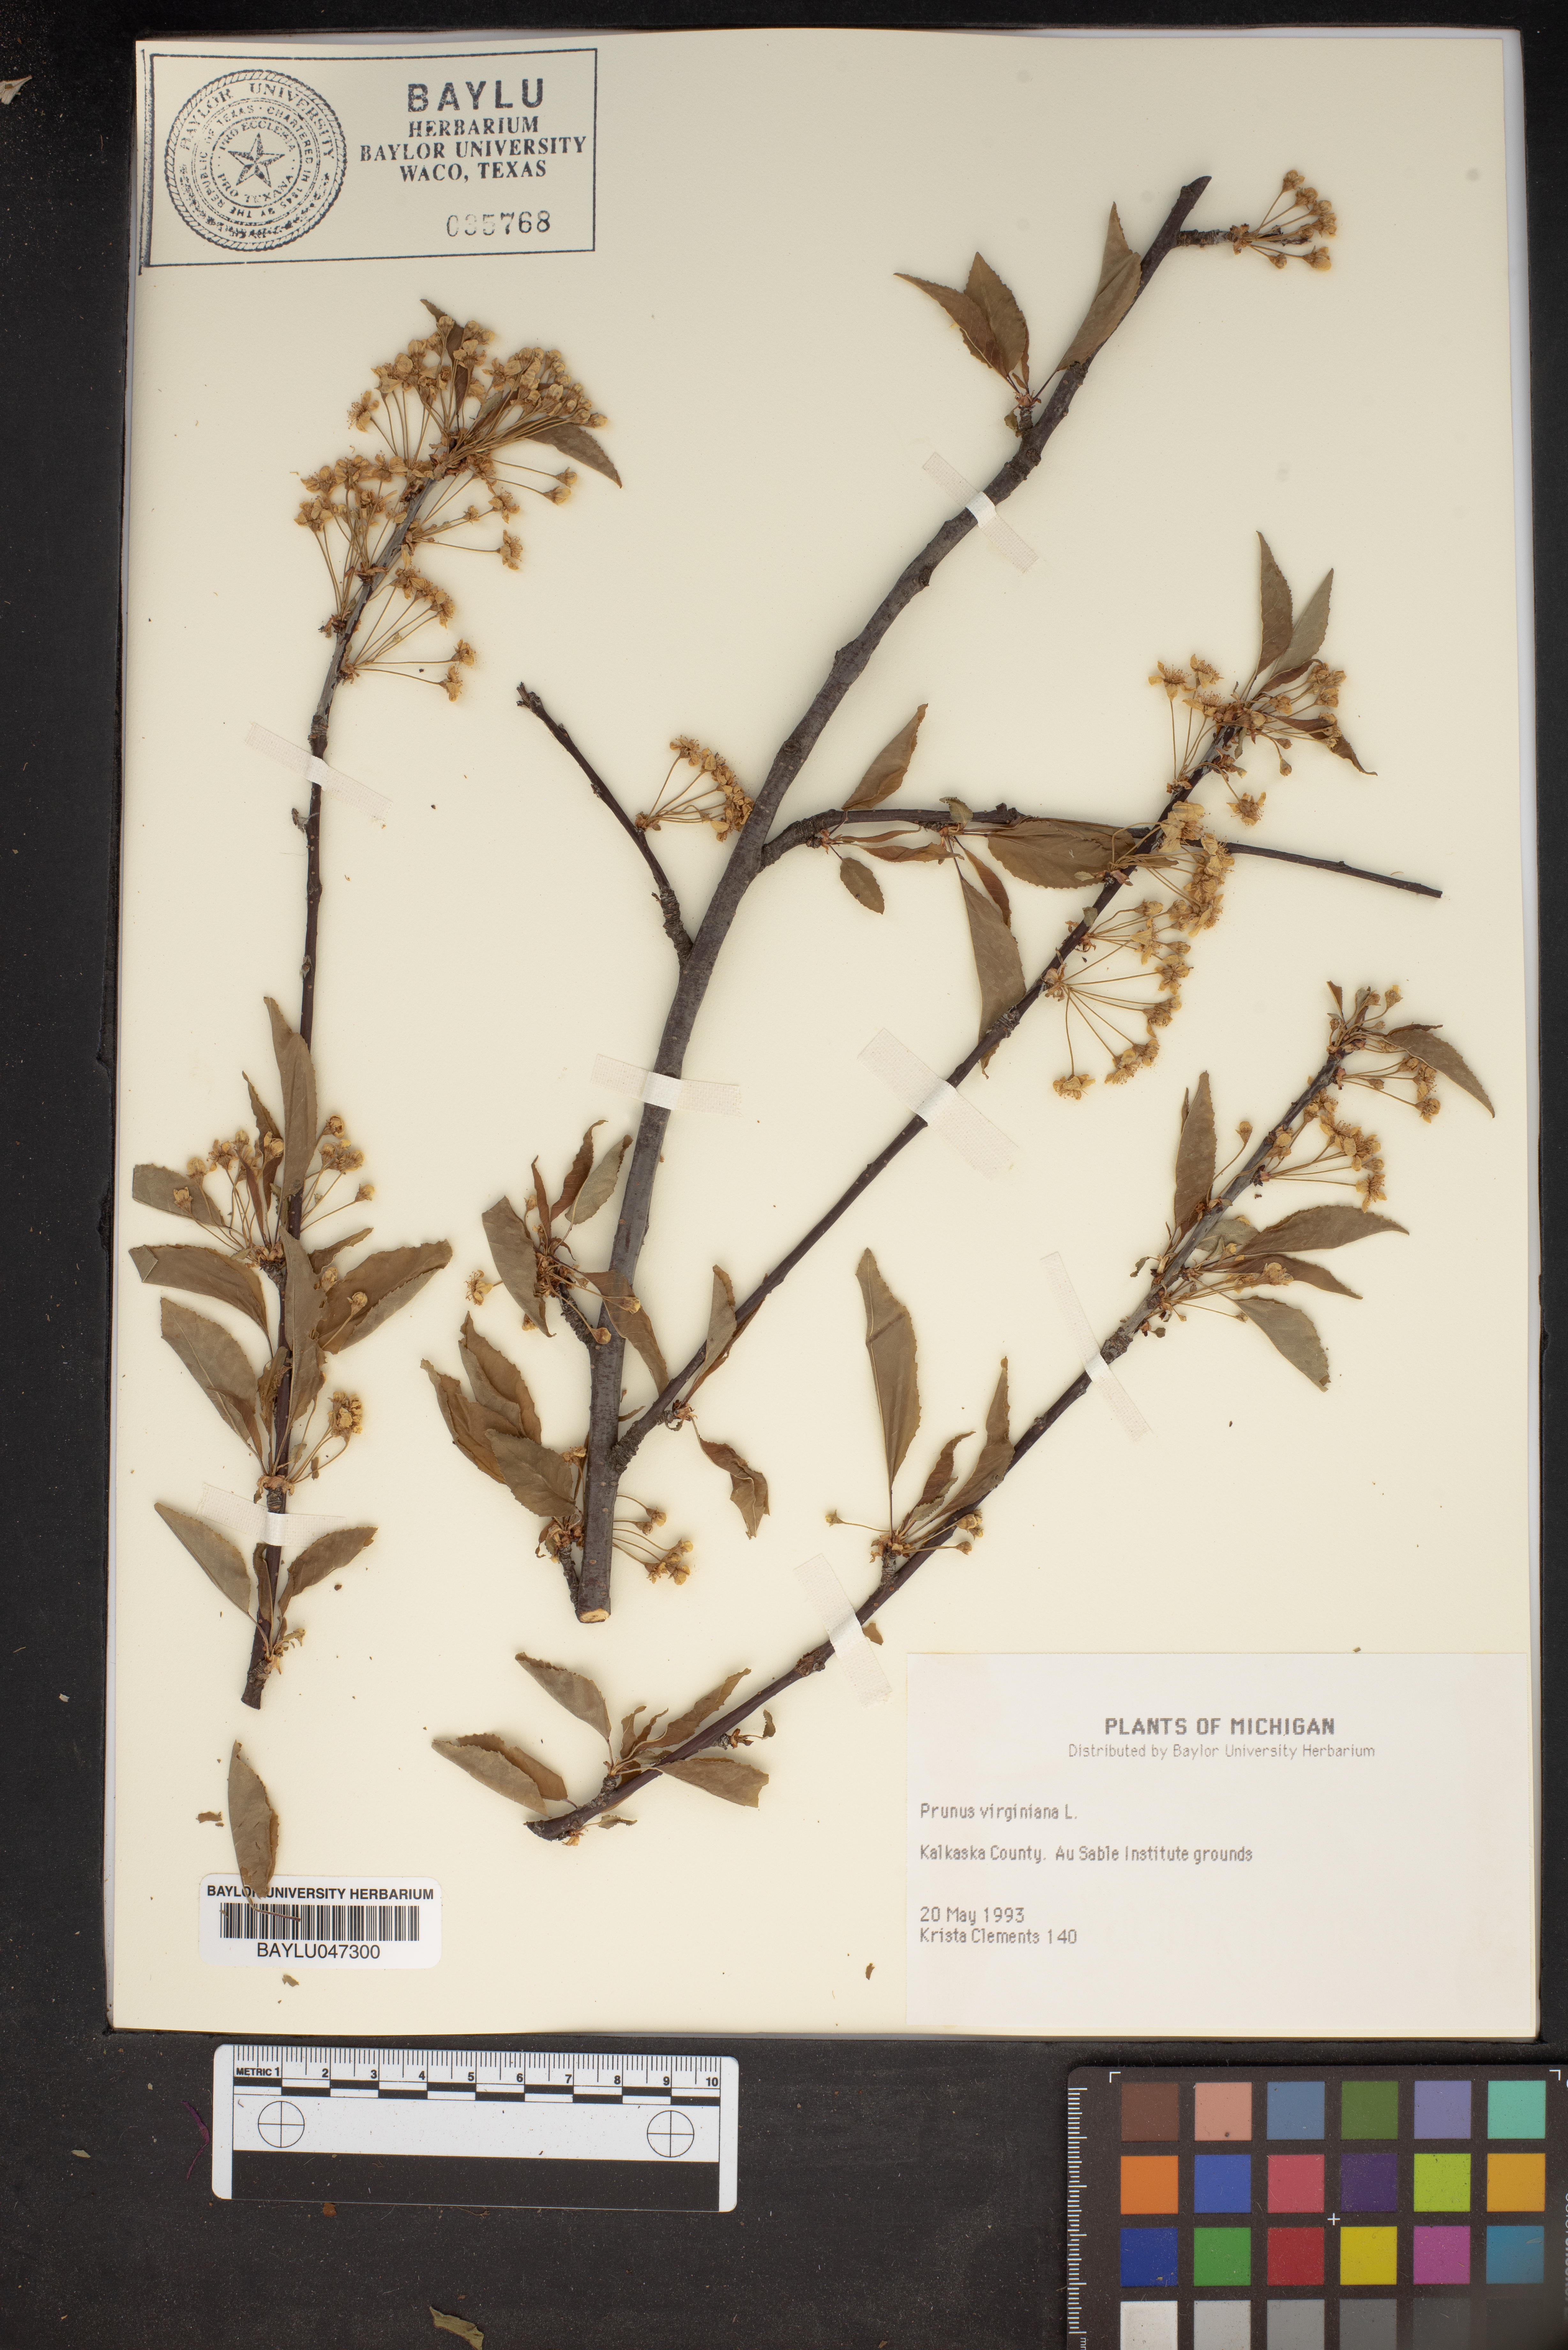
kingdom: Plantae
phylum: Tracheophyta
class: Magnoliopsida
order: Rosales
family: Rosaceae
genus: Prunus
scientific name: Prunus virginiana
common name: Chokecherry
